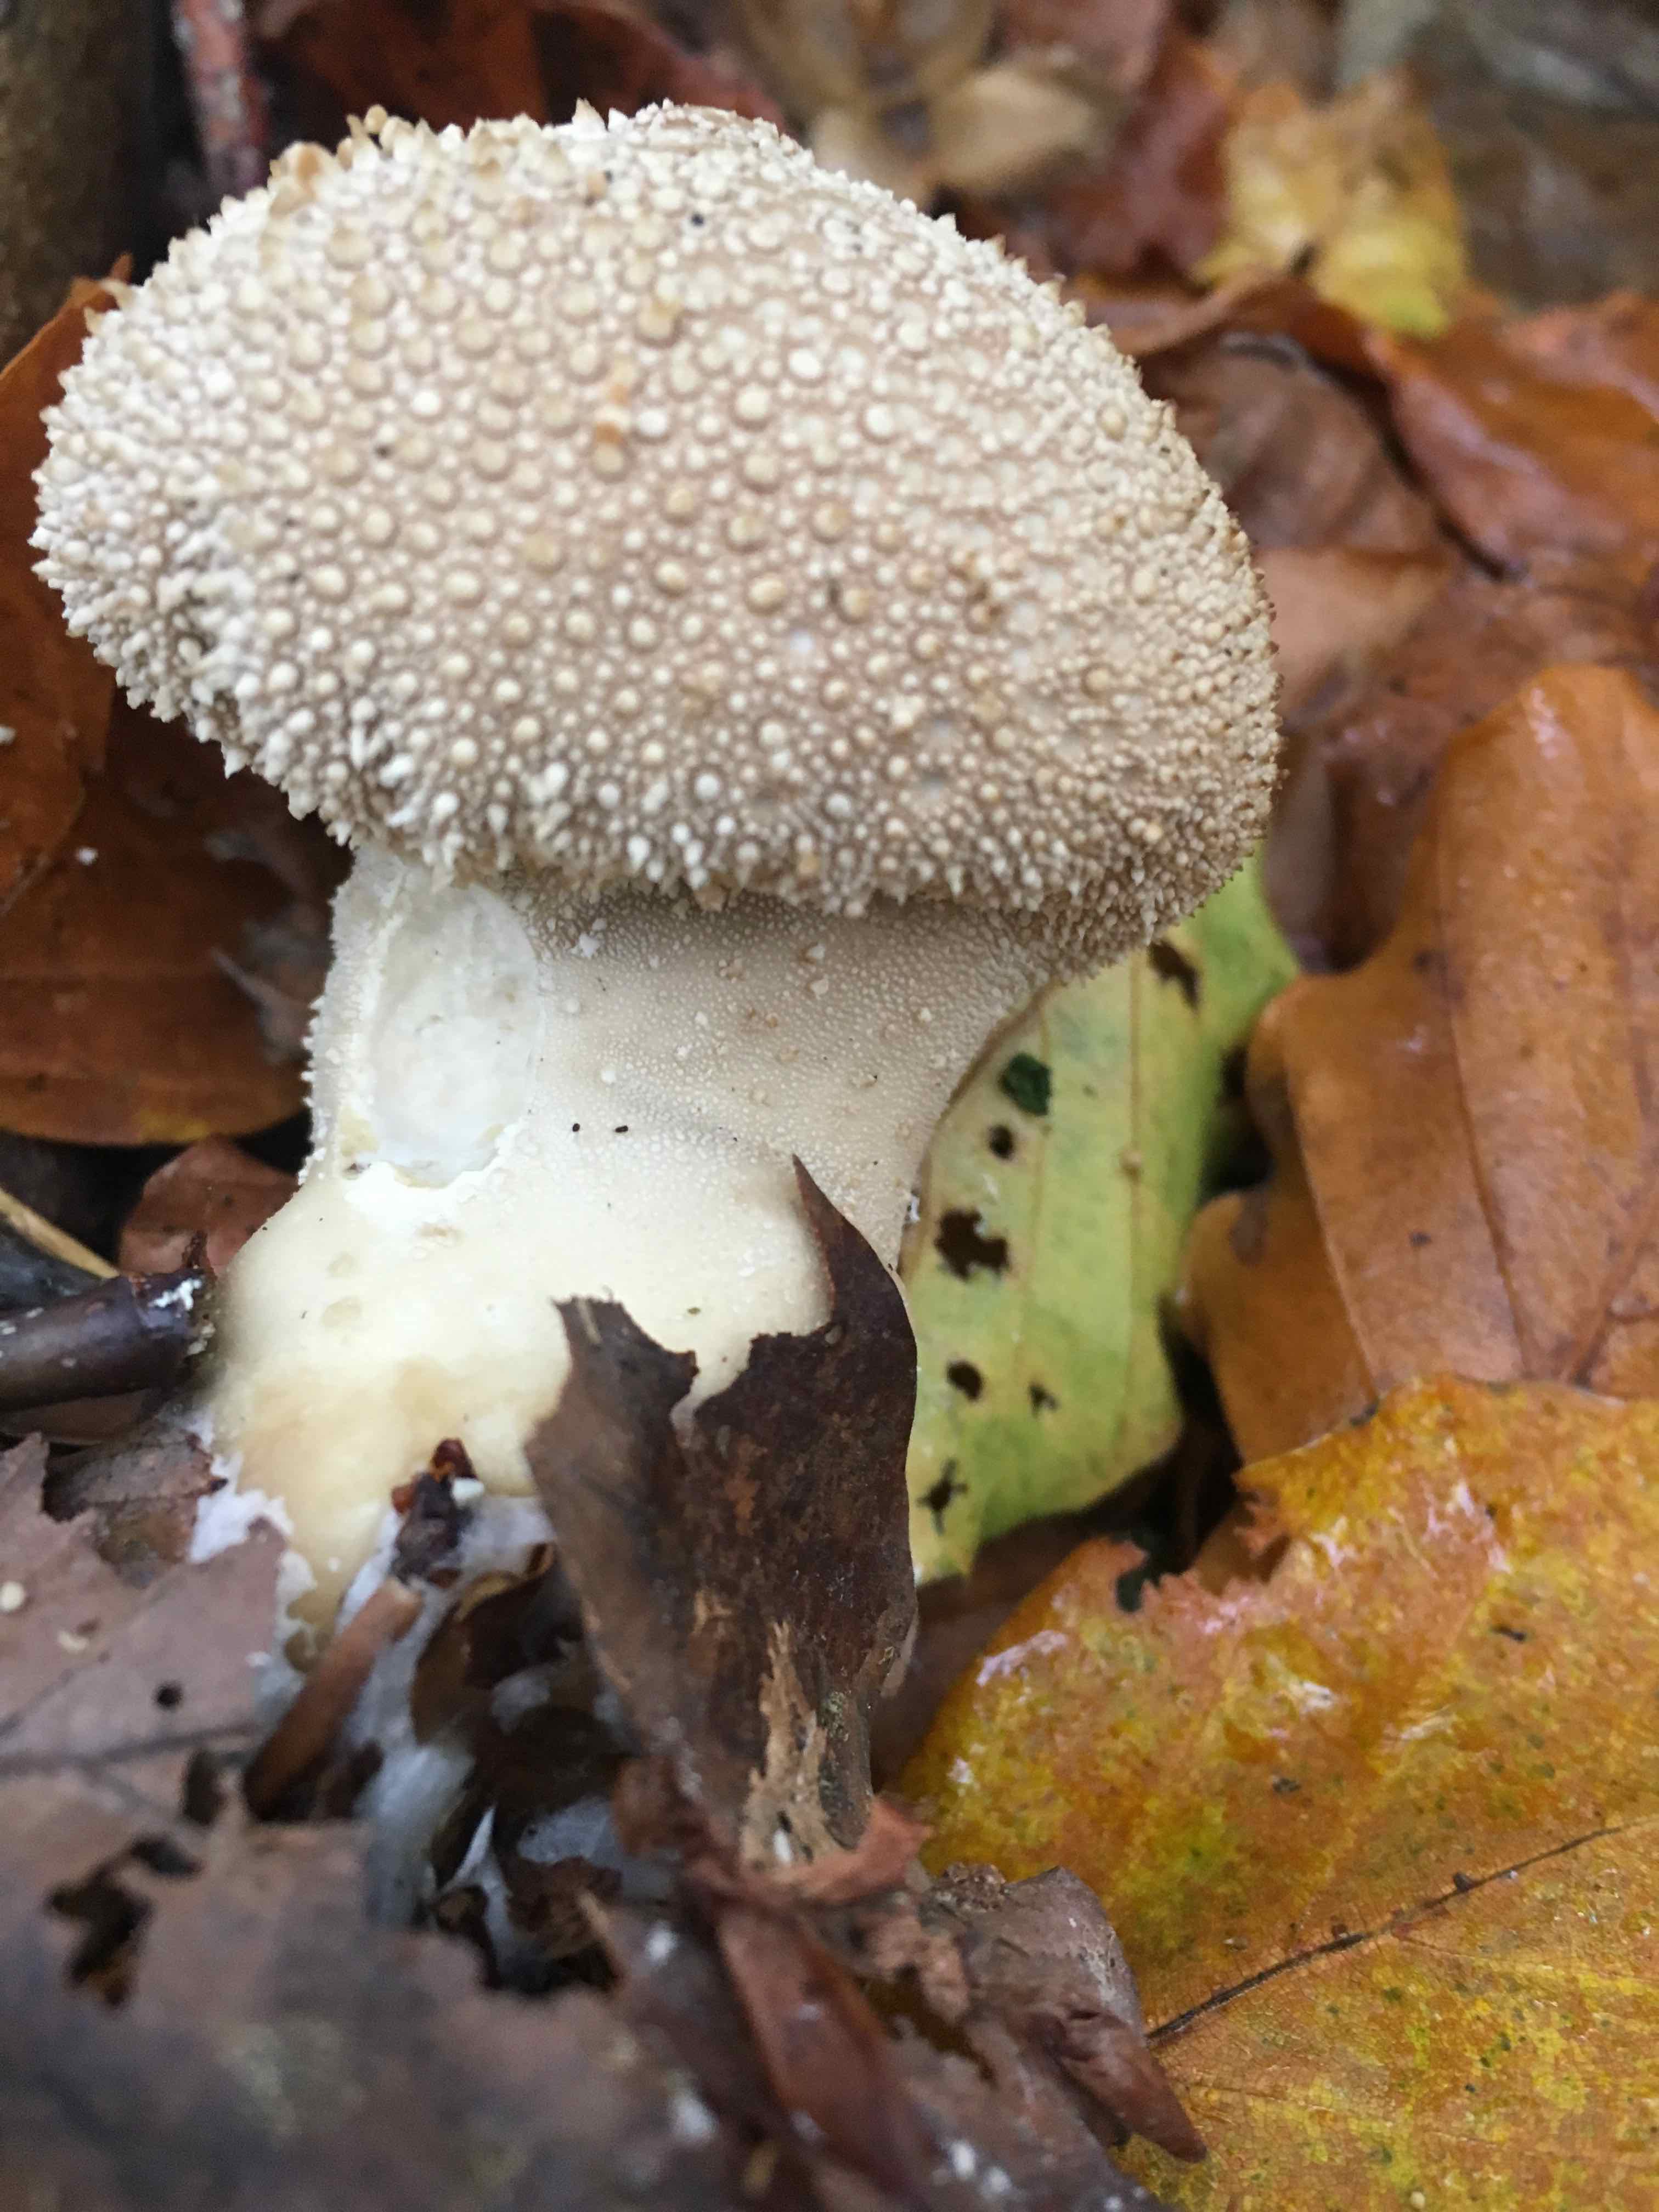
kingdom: Fungi
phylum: Basidiomycota
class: Agaricomycetes
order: Agaricales
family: Lycoperdaceae
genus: Lycoperdon
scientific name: Lycoperdon perlatum
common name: krystal-støvbold
